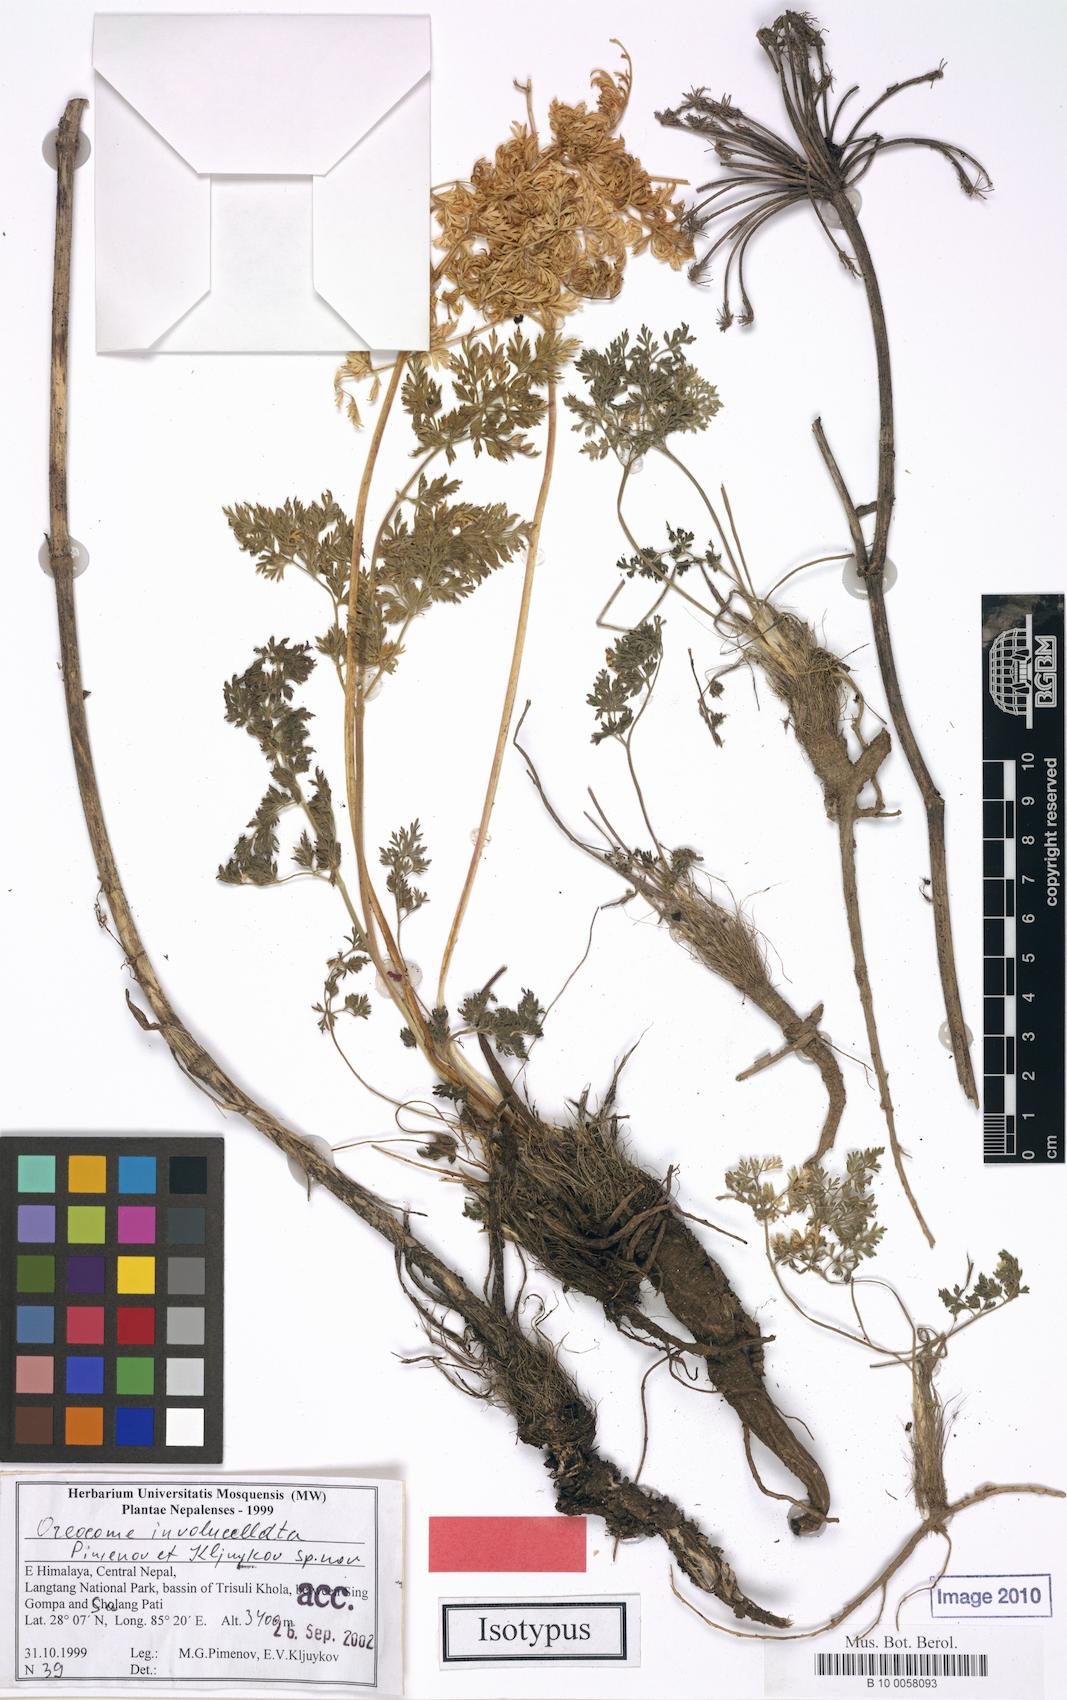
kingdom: Plantae
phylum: Tracheophyta
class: Magnoliopsida
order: Apiales
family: Apiaceae
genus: Oreocome
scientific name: Oreocome involucellata
